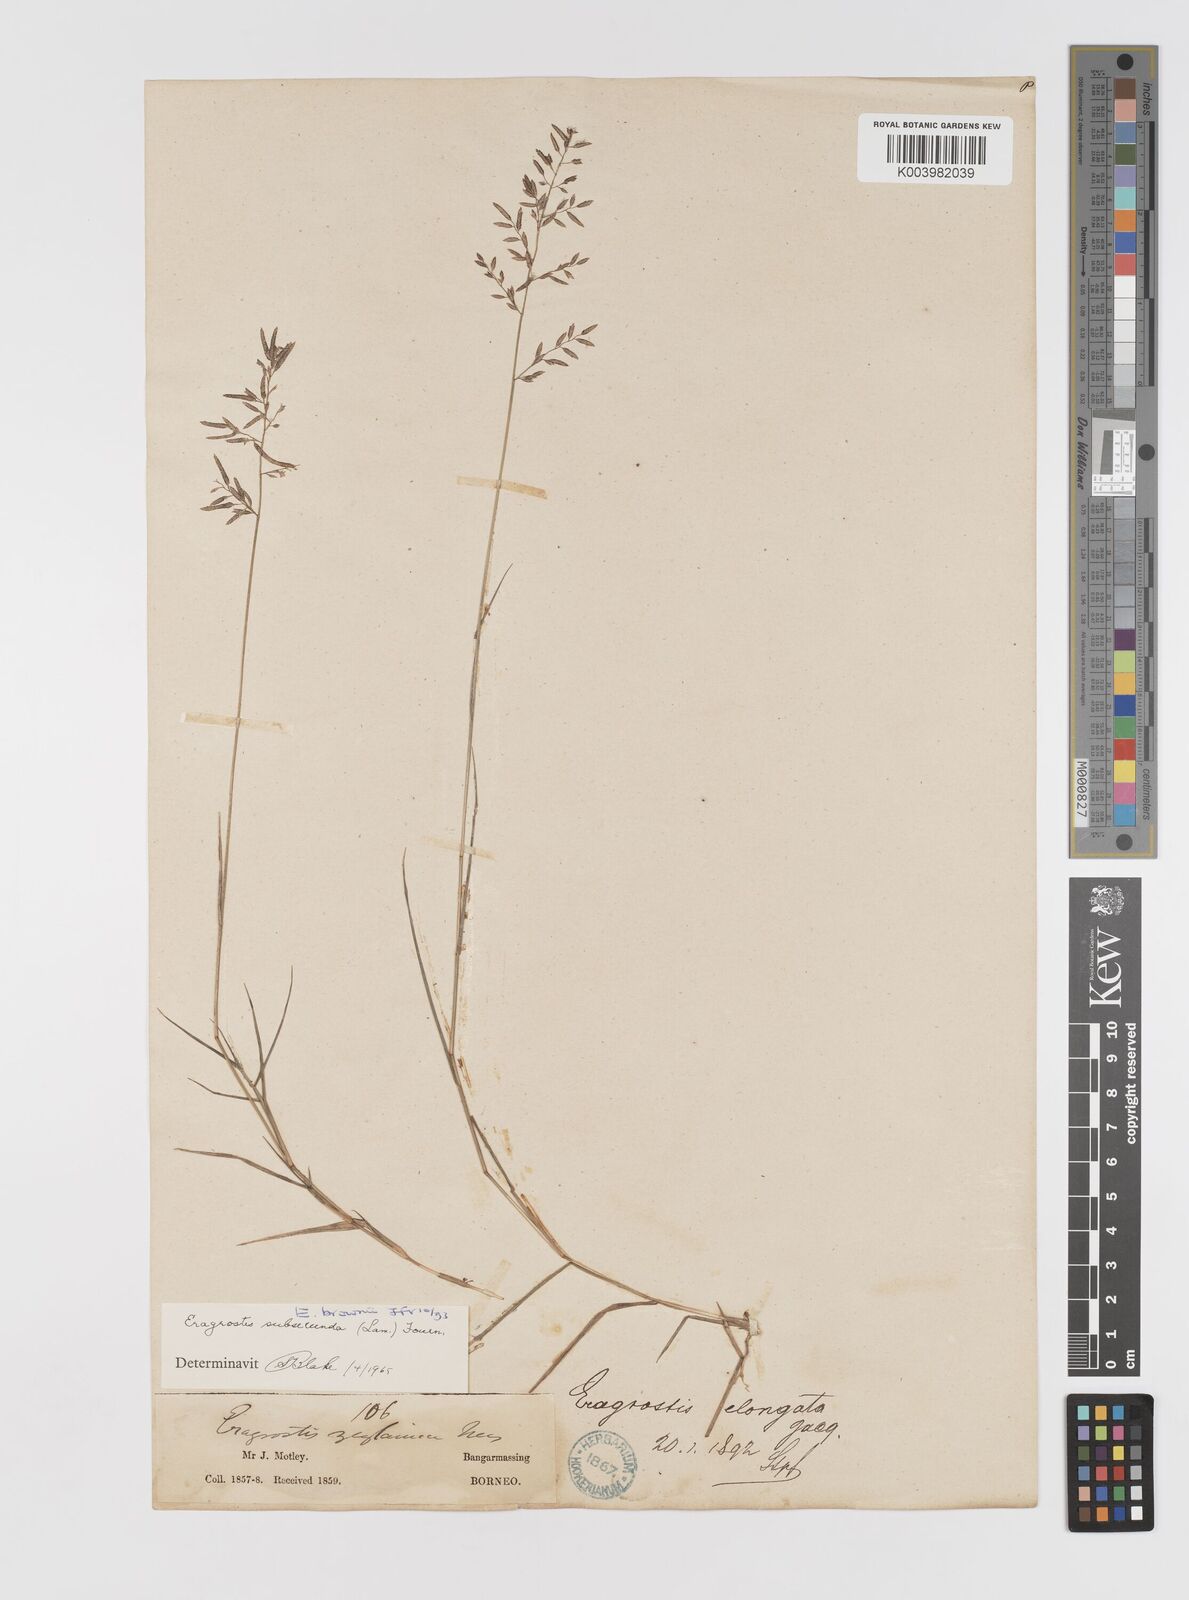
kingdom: Plantae
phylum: Tracheophyta
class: Liliopsida
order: Poales
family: Poaceae
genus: Eragrostis
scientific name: Eragrostis brownii
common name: Lovegrass
